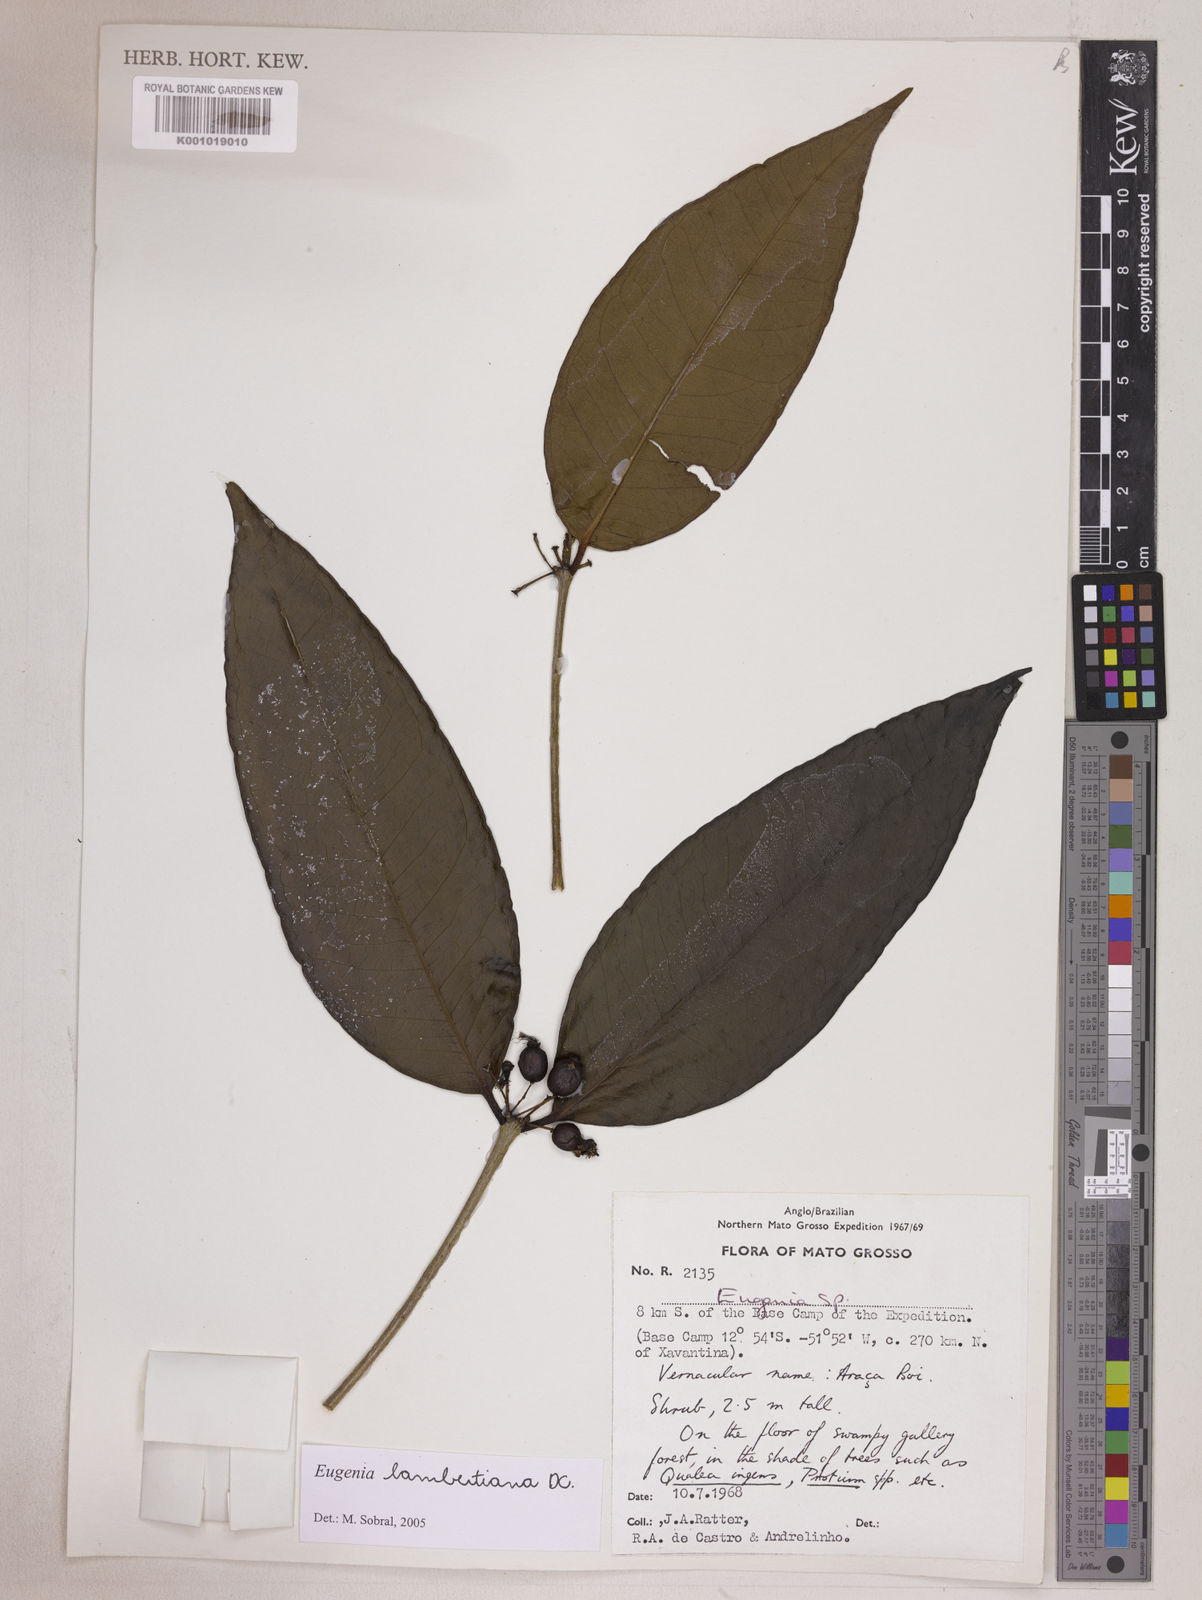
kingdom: Plantae
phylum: Tracheophyta
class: Magnoliopsida
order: Myrtales
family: Myrtaceae
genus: Eugenia
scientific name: Eugenia lambertiana
